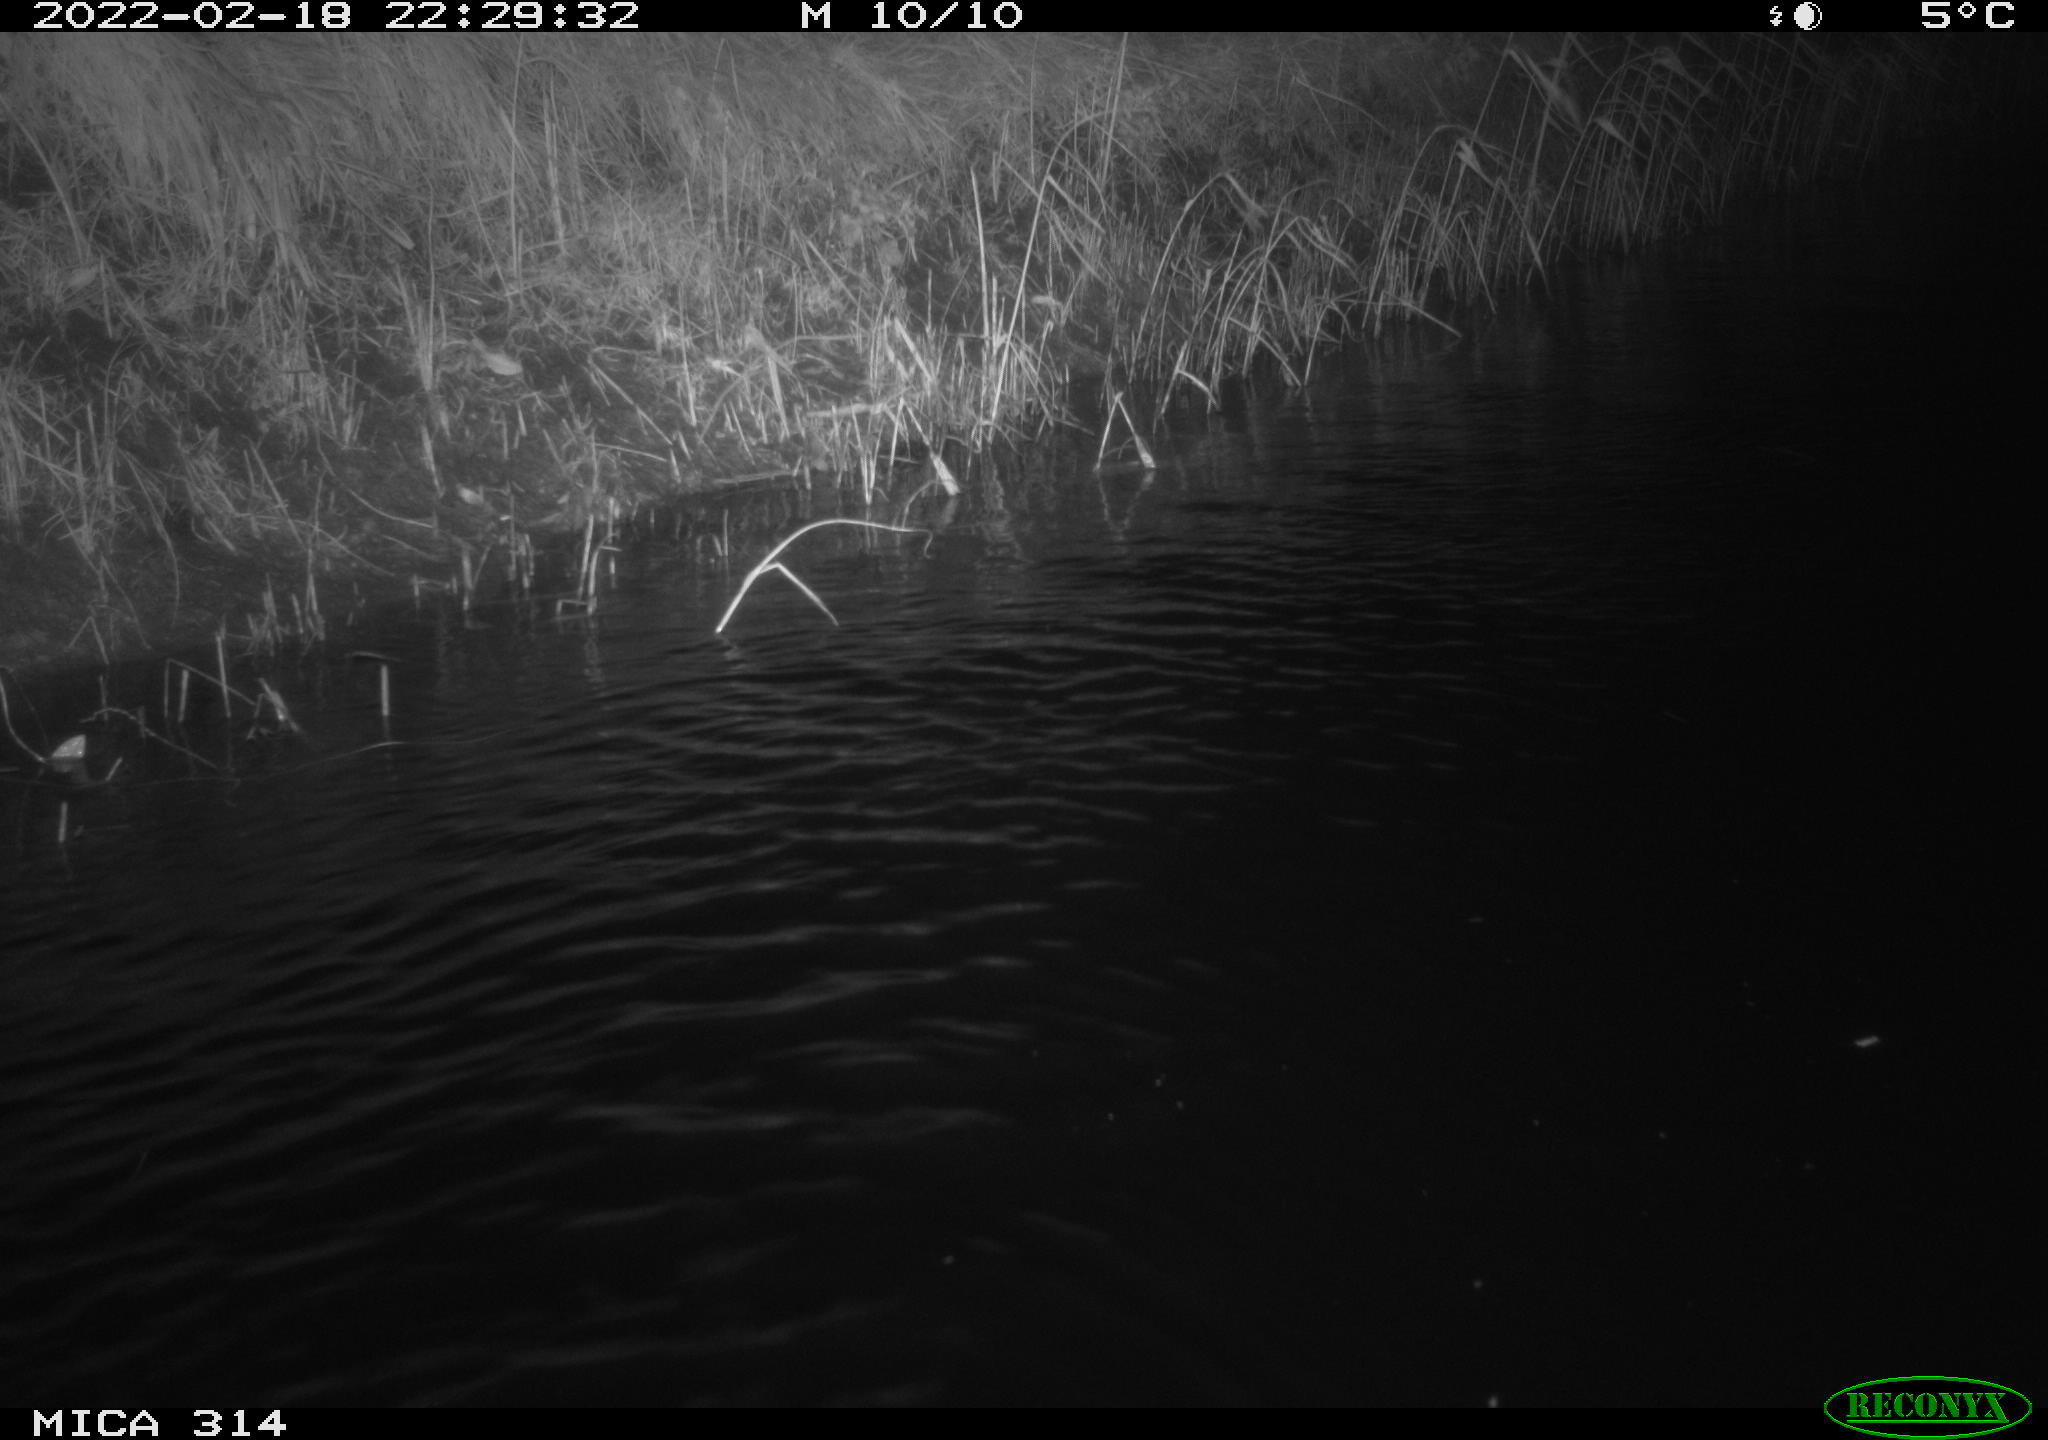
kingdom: Animalia
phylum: Chordata
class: Aves
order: Anseriformes
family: Anatidae
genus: Anas
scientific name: Anas platyrhynchos
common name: Mallard
